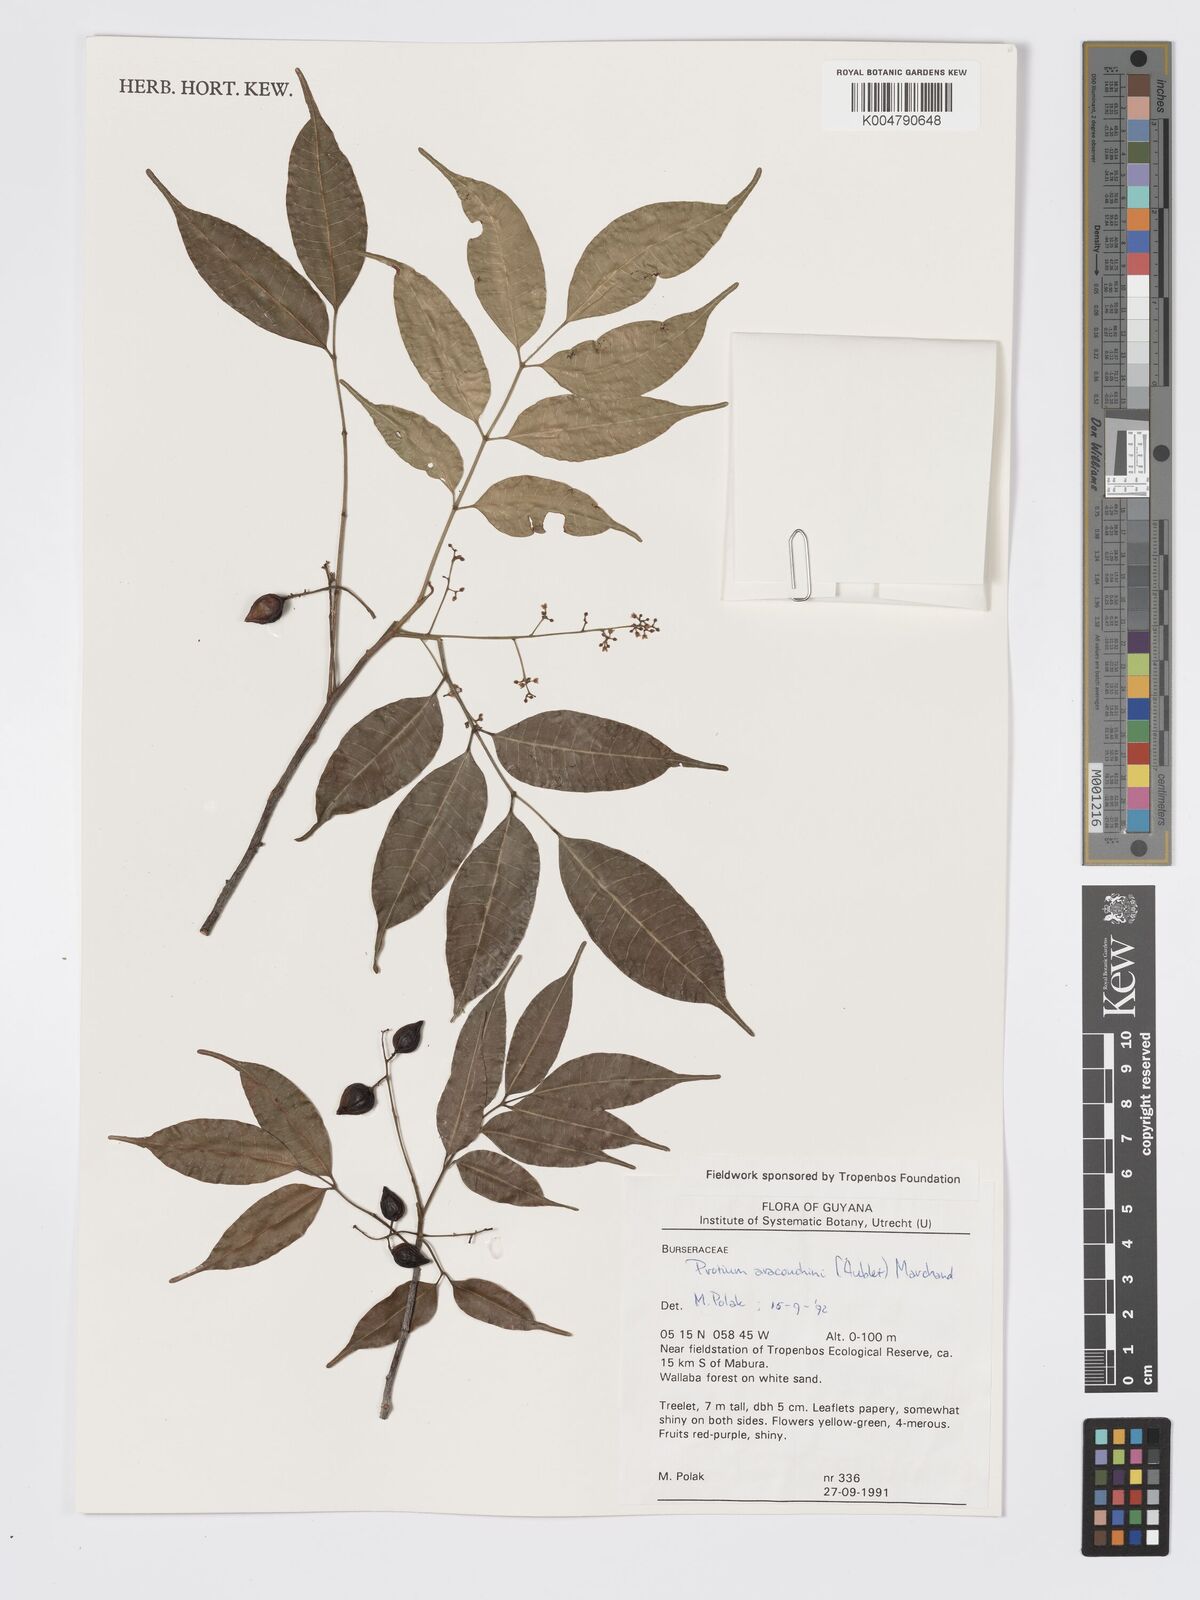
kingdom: Plantae
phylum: Tracheophyta
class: Magnoliopsida
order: Sapindales
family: Burseraceae
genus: Protium
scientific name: Protium aracouchini
